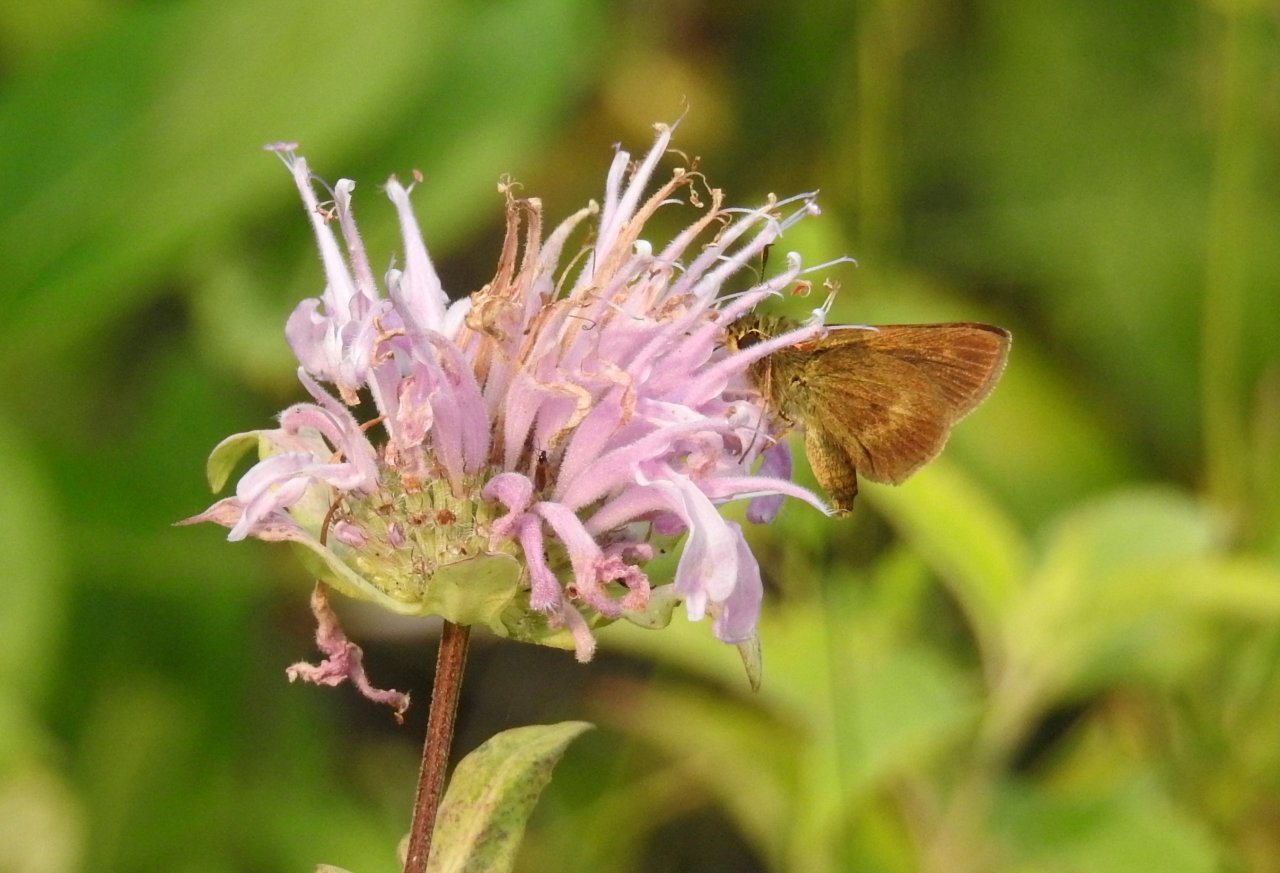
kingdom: Animalia
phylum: Arthropoda
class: Insecta
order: Lepidoptera
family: Hesperiidae
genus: Polites
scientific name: Polites egeremet
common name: Northern Broken-Dash
